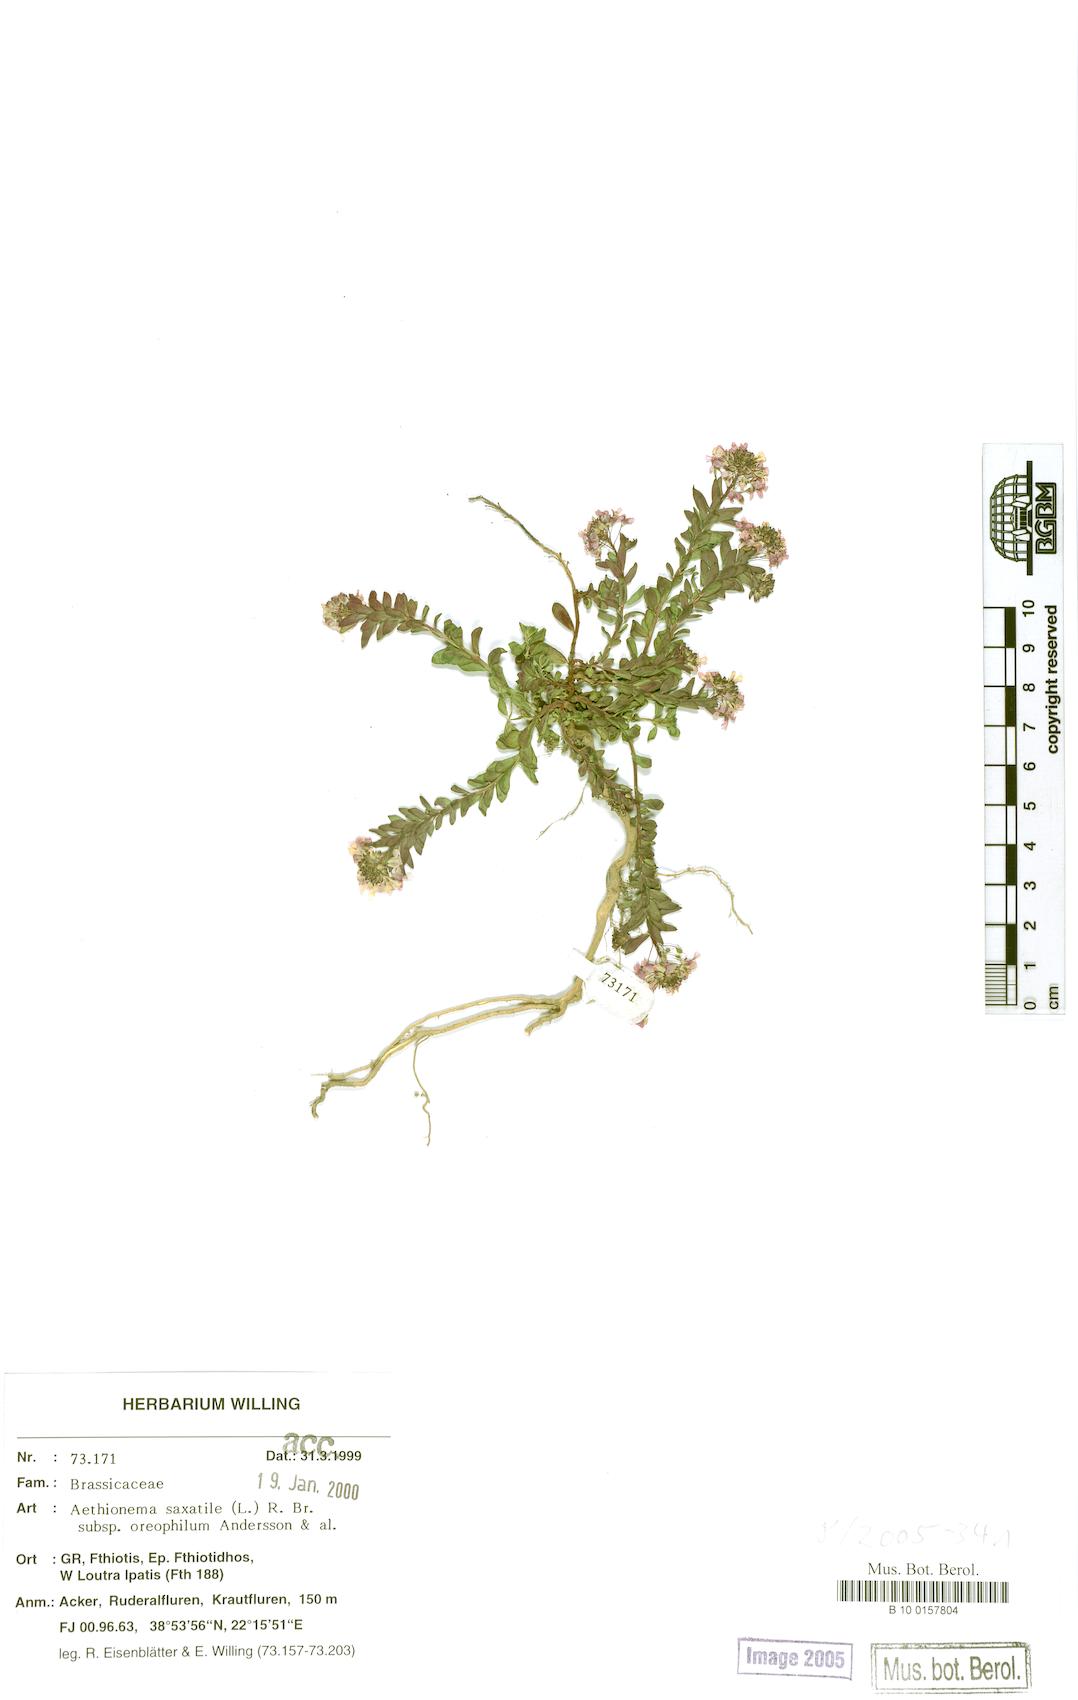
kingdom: Plantae
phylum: Tracheophyta
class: Magnoliopsida
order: Brassicales
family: Brassicaceae
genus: Aethionema
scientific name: Aethionema saxatile
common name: Burnt candytuft
